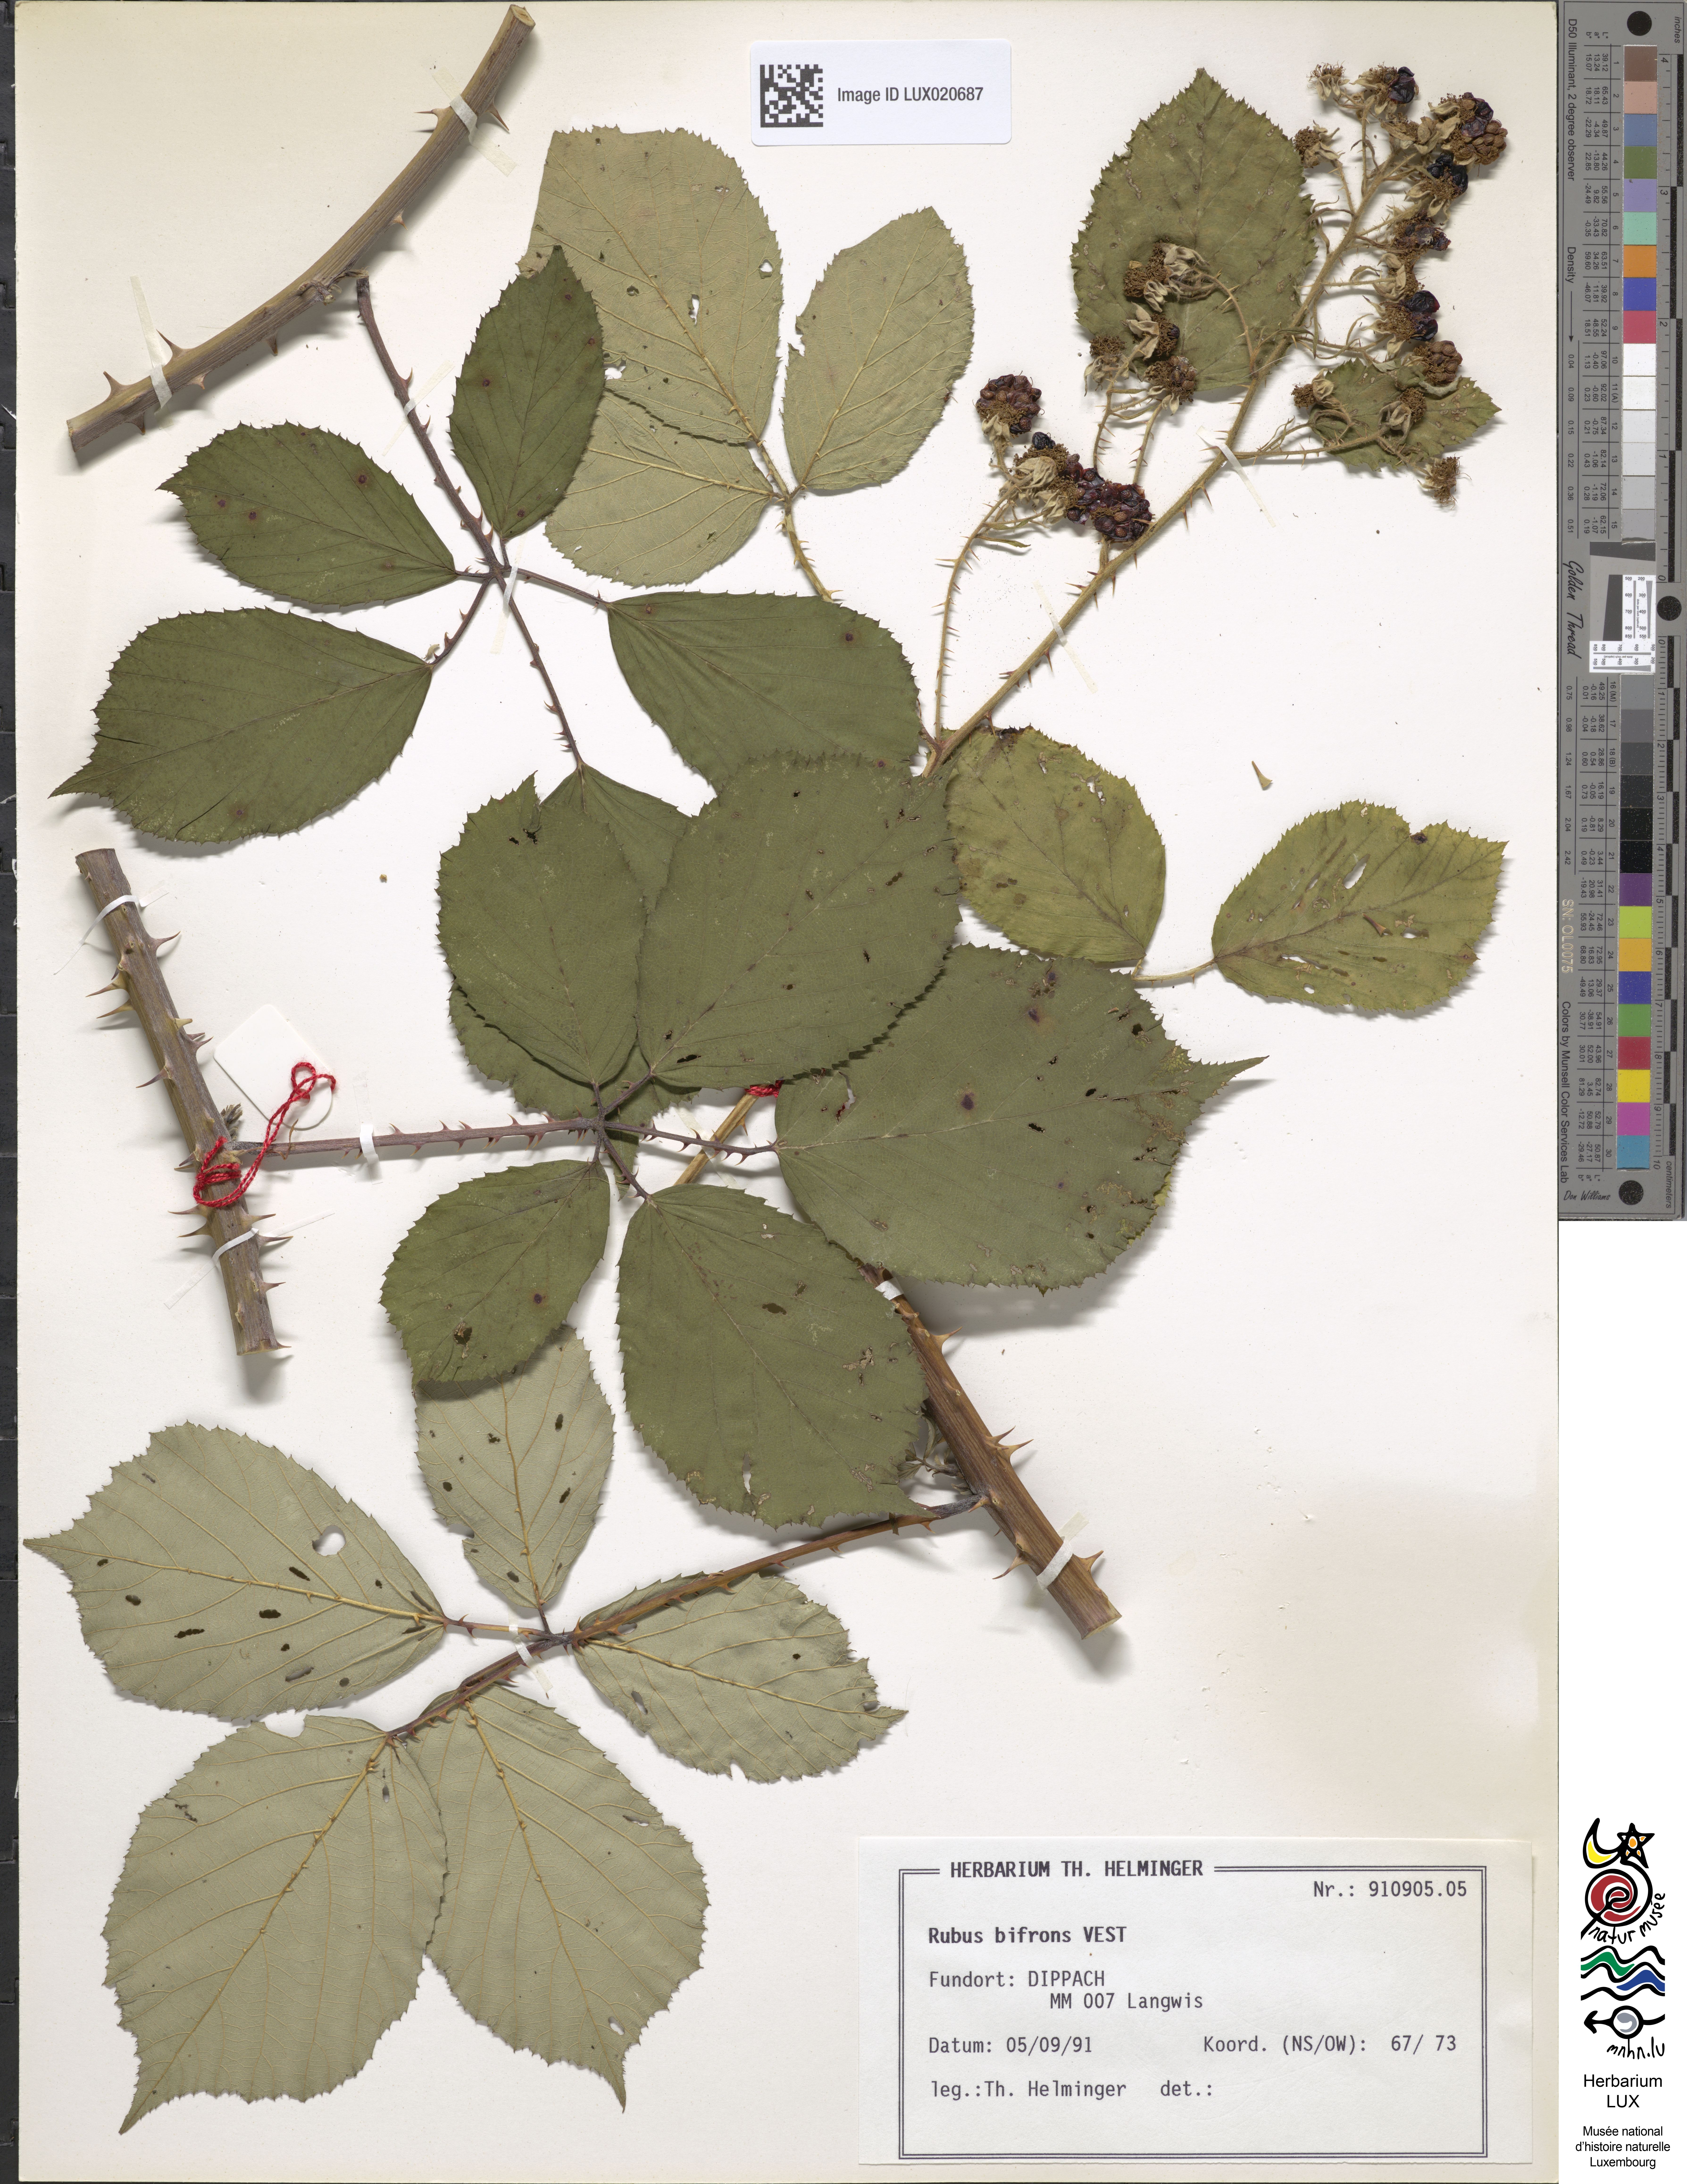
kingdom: Plantae
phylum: Tracheophyta
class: Magnoliopsida
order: Rosales
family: Rosaceae
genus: Rubus
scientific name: Rubus bifrons
